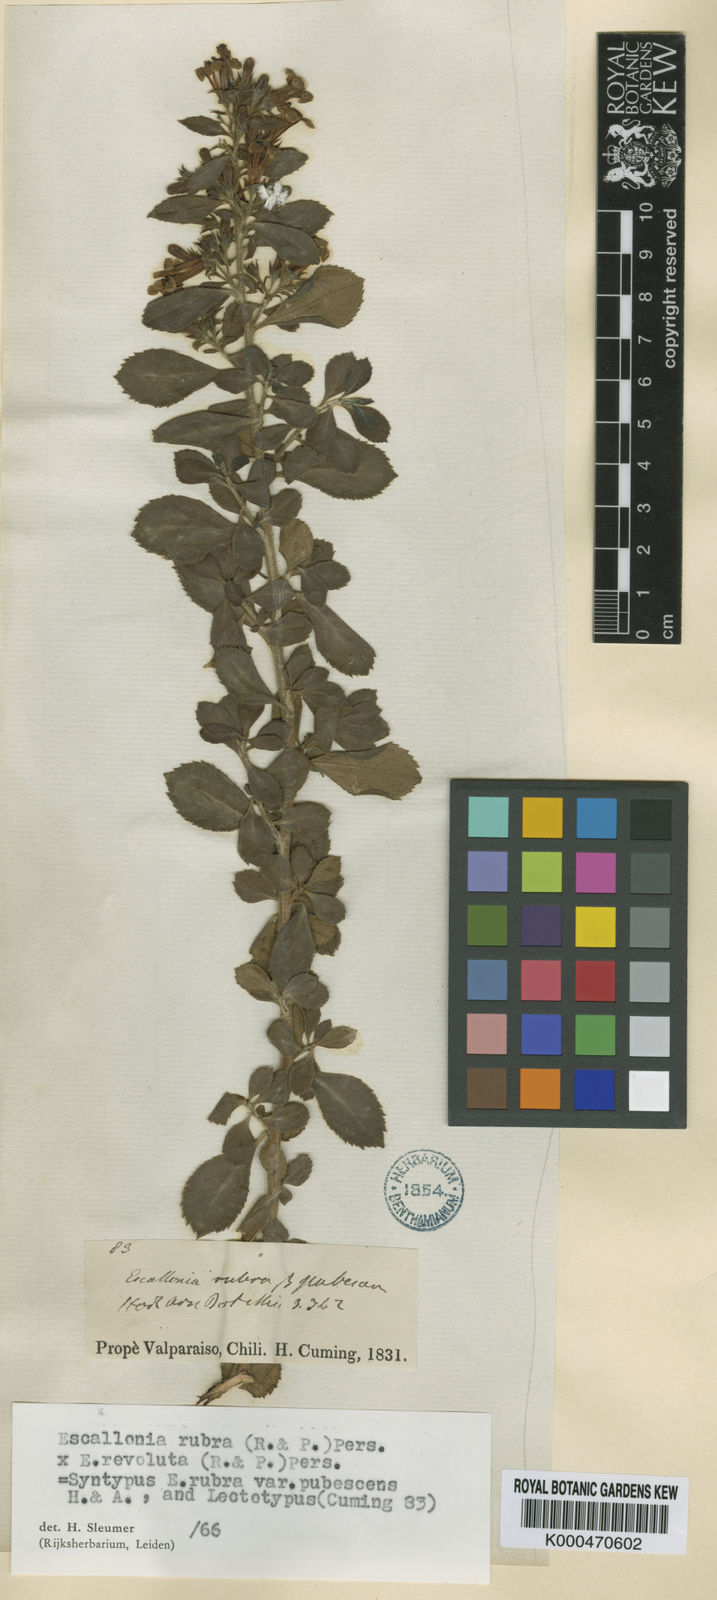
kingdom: Plantae
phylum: Tracheophyta
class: Magnoliopsida
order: Escalloniales
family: Escalloniaceae
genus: Escallonia
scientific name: Escallonia rubra
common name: Redclaws
